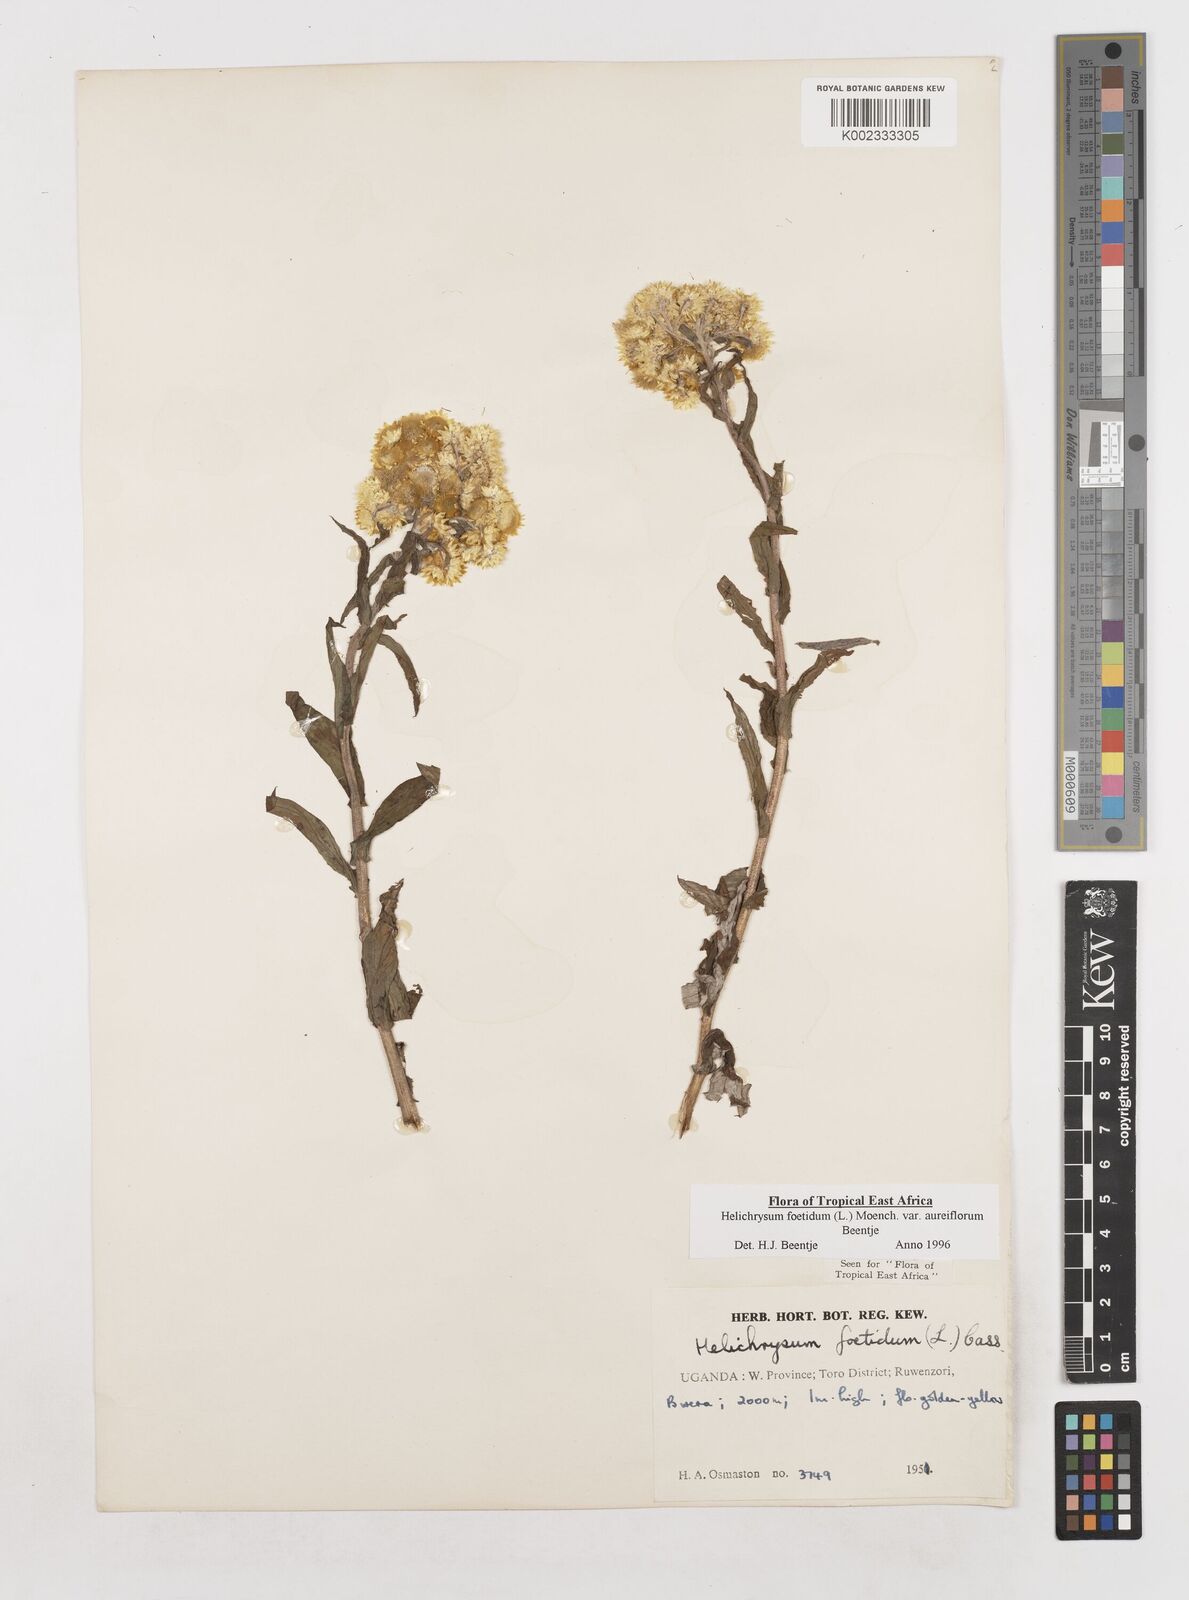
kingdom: Plantae
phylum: Tracheophyta
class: Magnoliopsida
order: Asterales
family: Asteraceae
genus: Helichrysum
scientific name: Helichrysum foetidum
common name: Stinking everlasting
